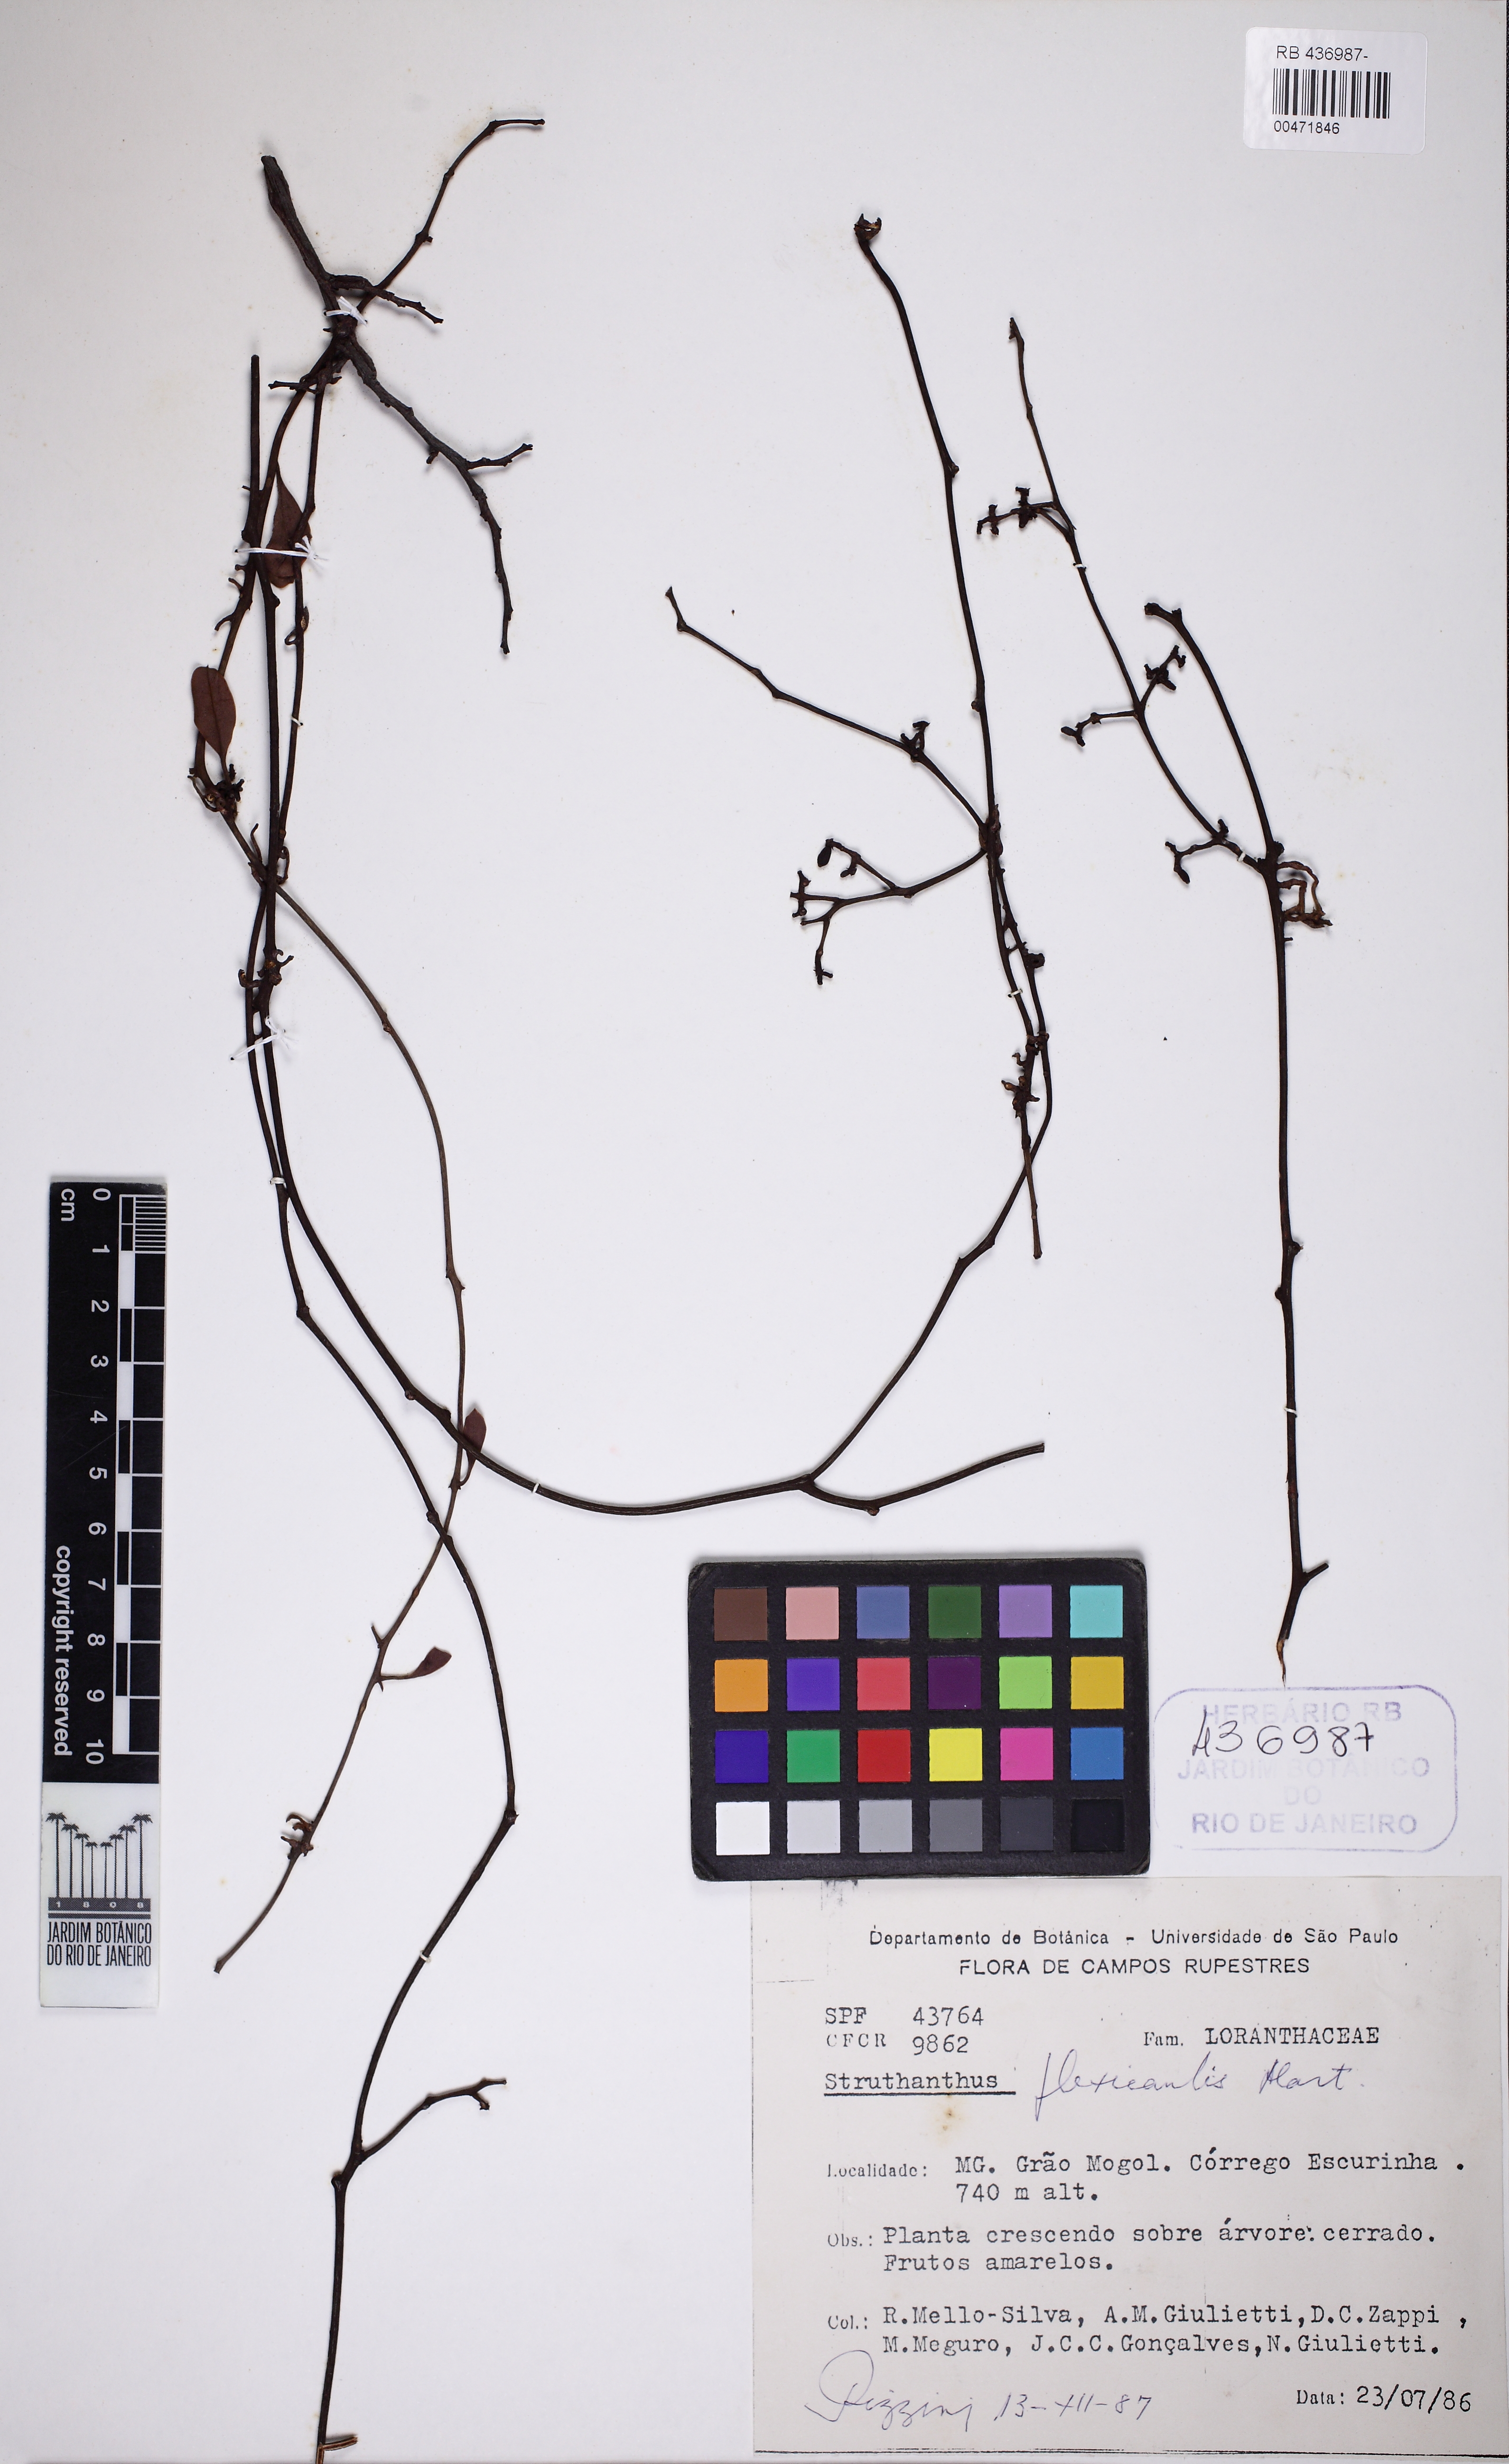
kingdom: Plantae
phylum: Tracheophyta
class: Magnoliopsida
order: Santalales
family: Loranthaceae
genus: Struthanthus
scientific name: Struthanthus flexicaulis
